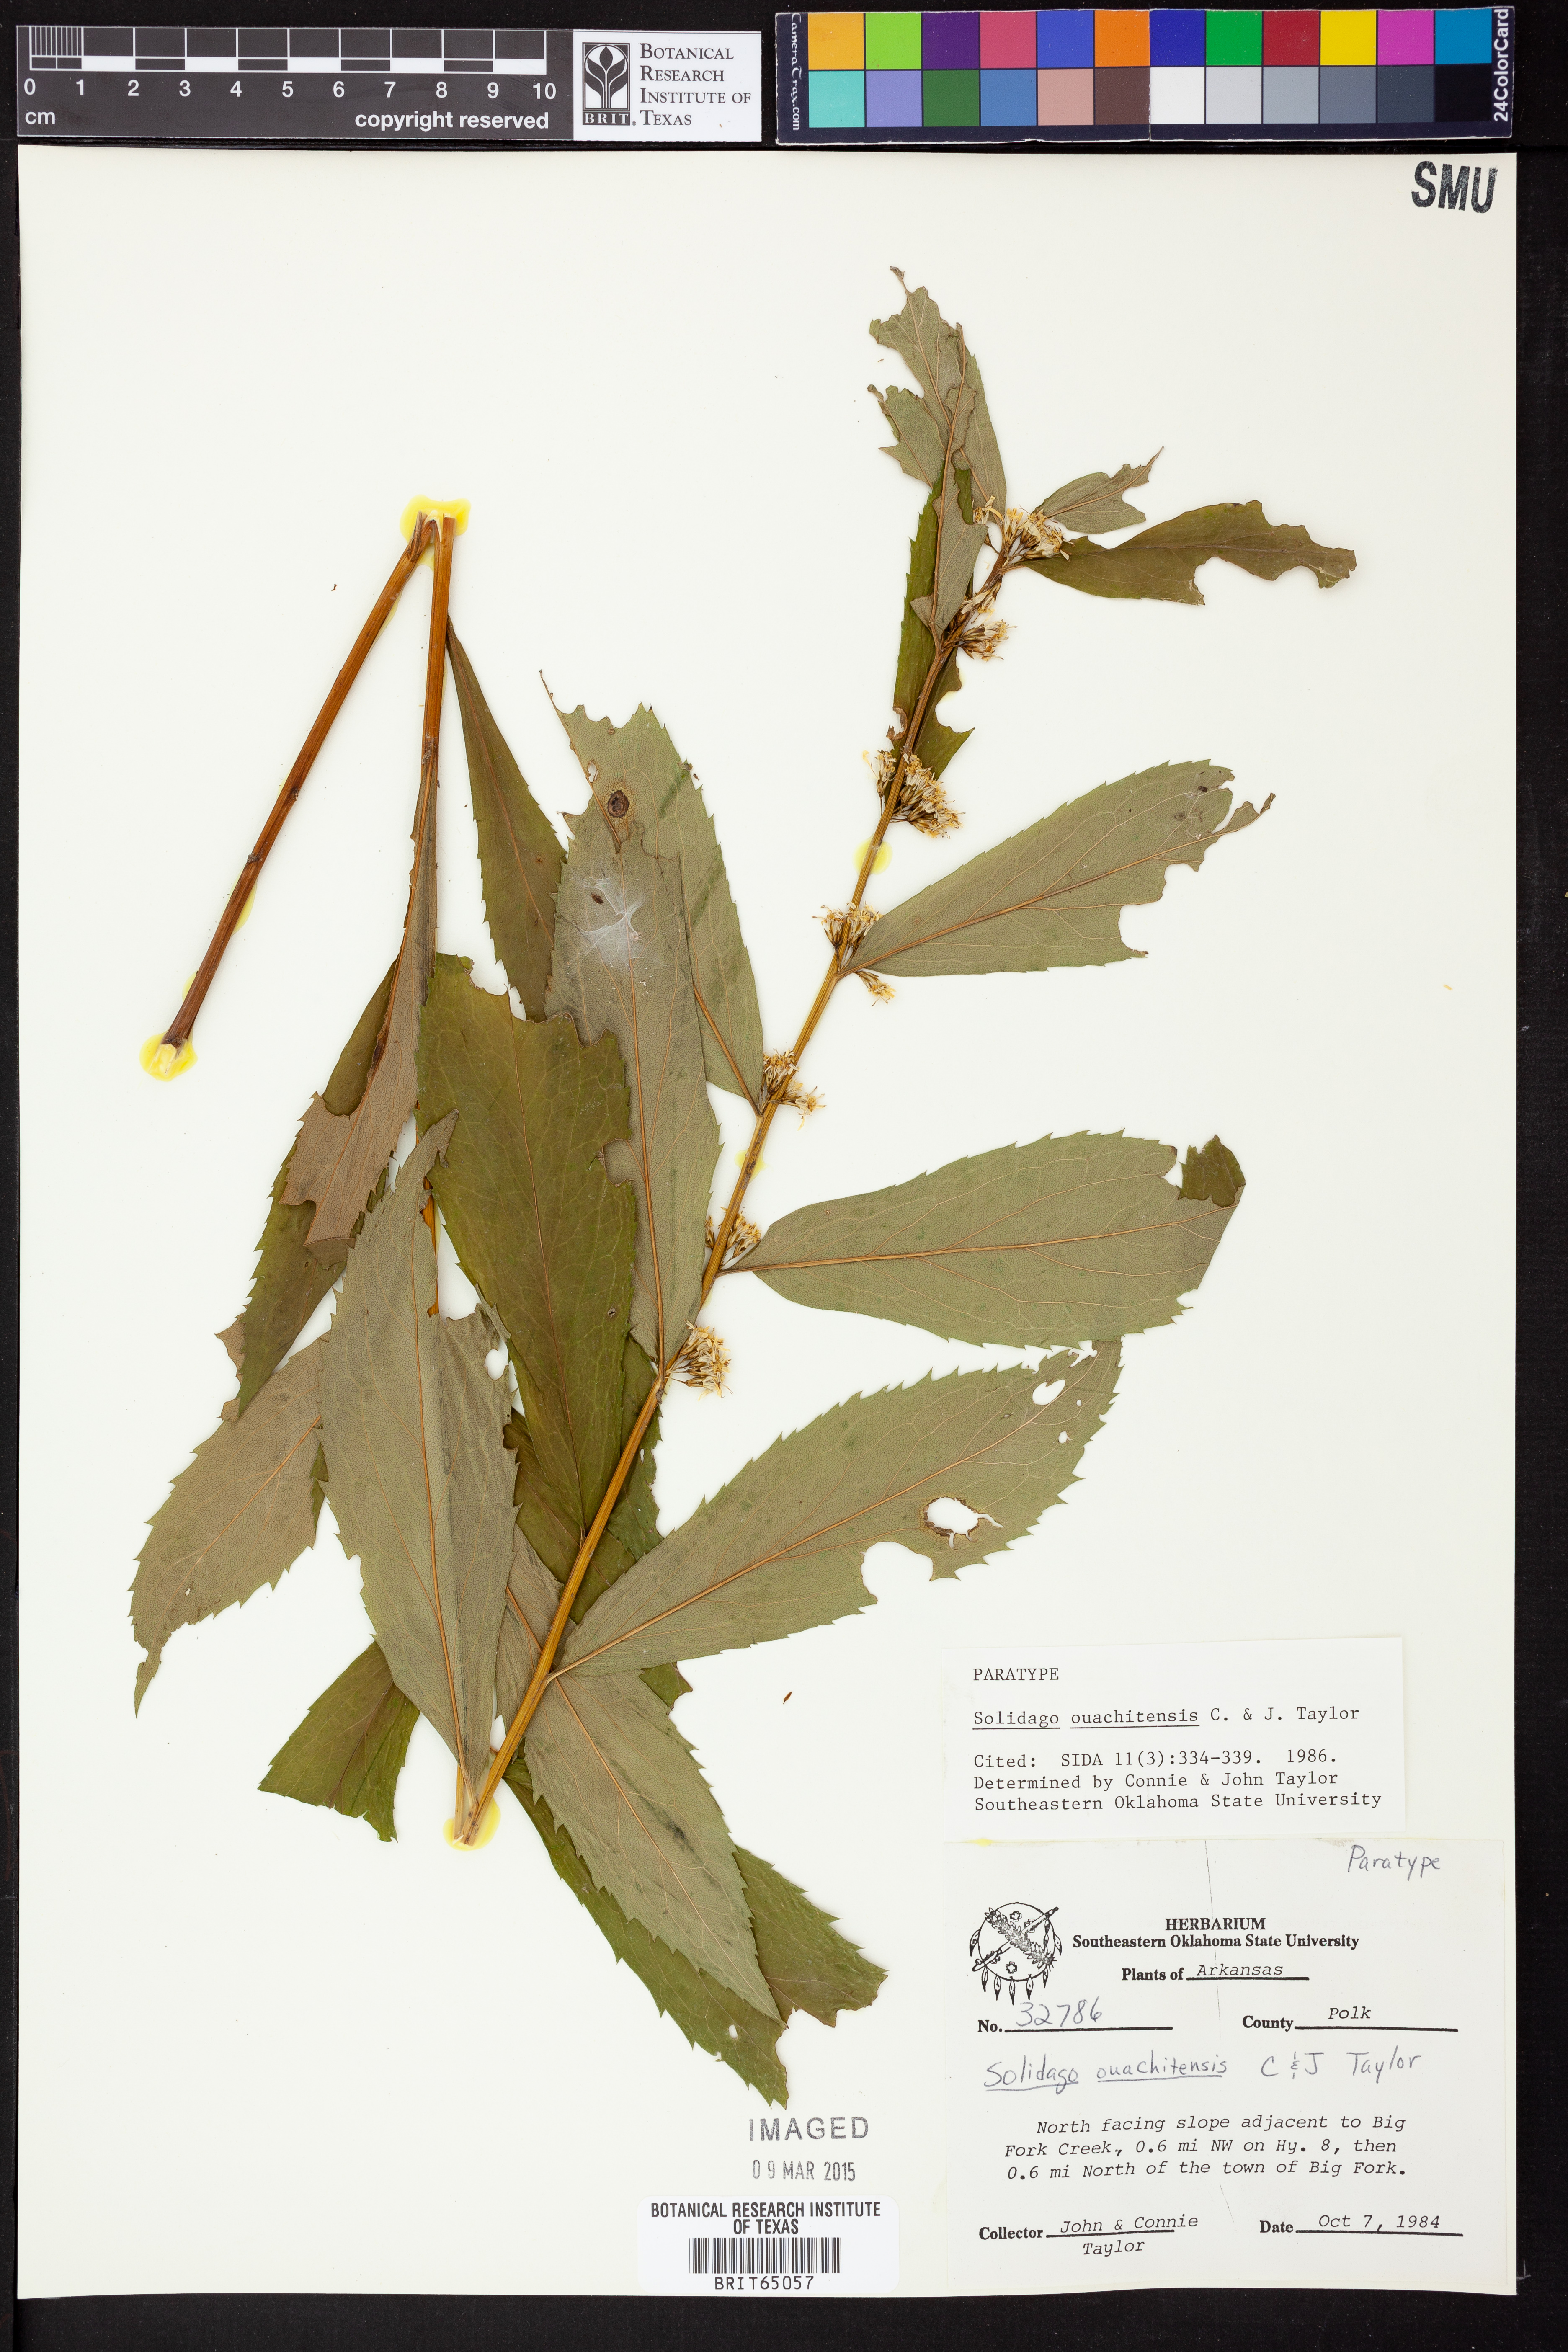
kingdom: Plantae
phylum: Tracheophyta
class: Magnoliopsida
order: Asterales
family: Asteraceae
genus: Solidago
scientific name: Solidago ouachitensis
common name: Ouachita mountains goldenrod
